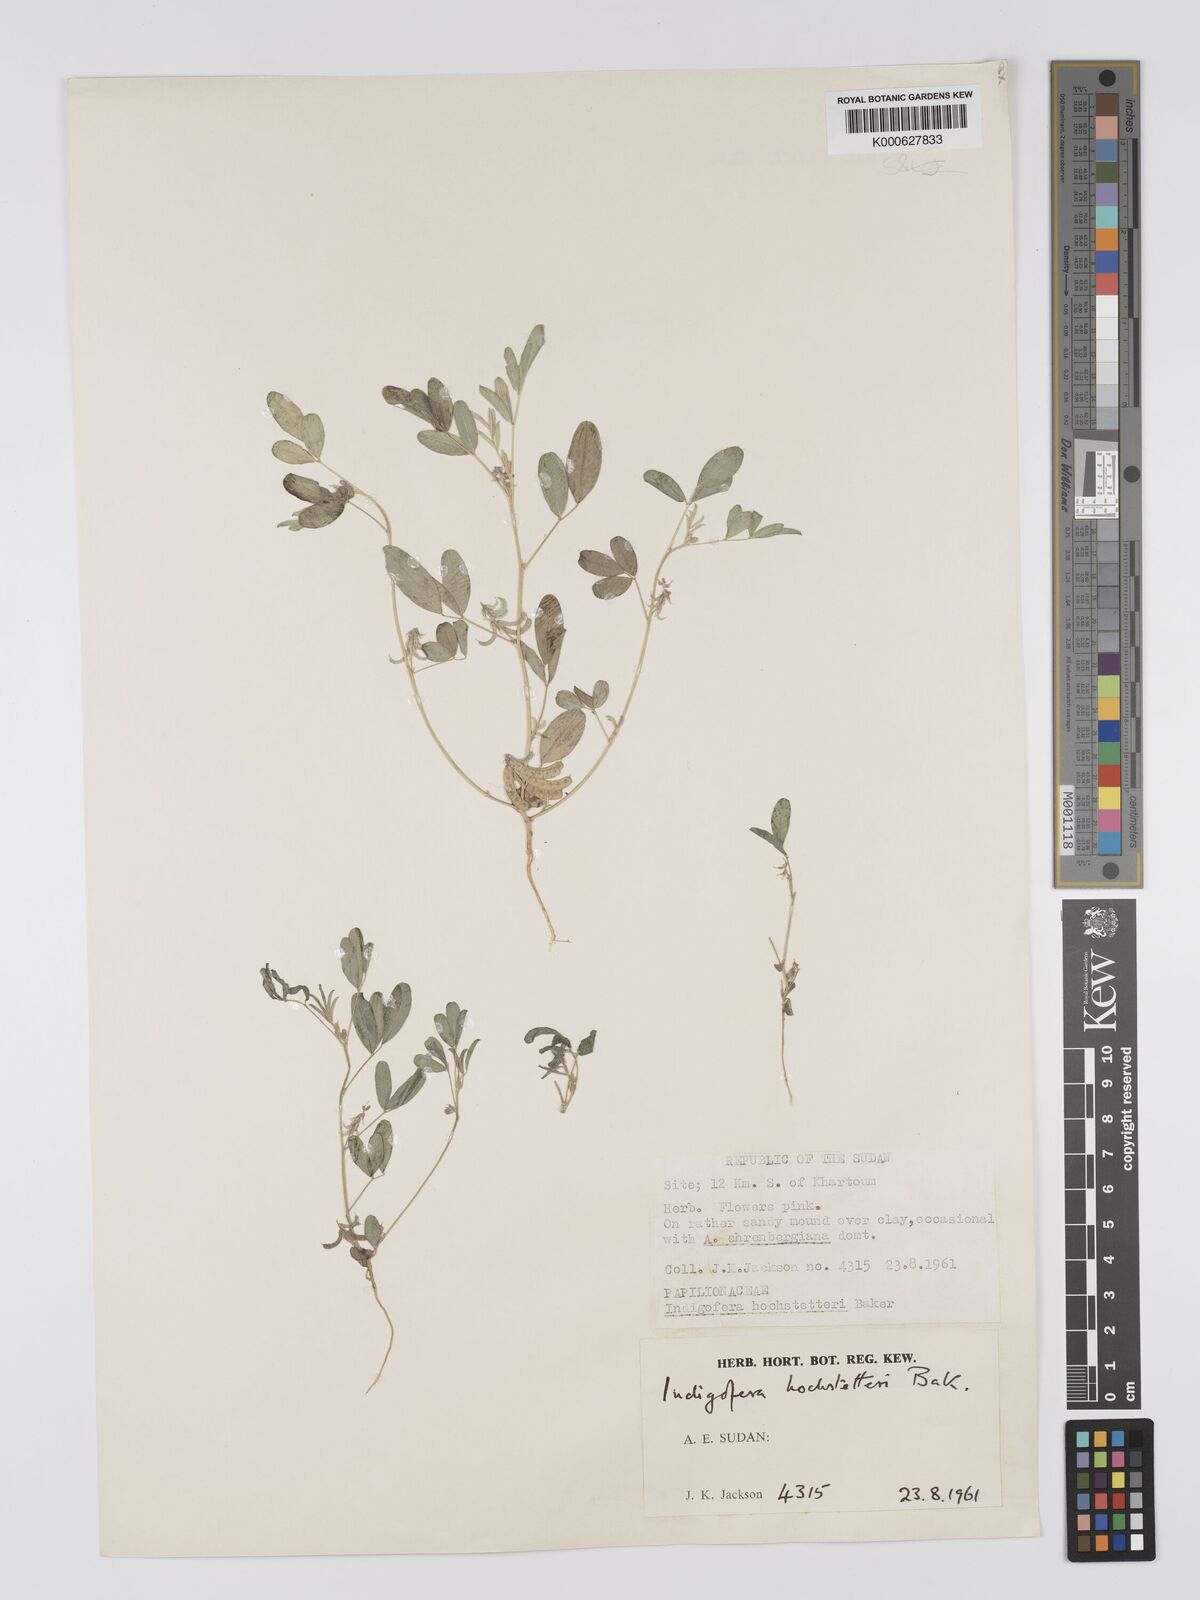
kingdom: Plantae
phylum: Tracheophyta
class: Magnoliopsida
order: Fabales
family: Fabaceae
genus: Indigofera
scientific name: Indigofera hochstetteri
